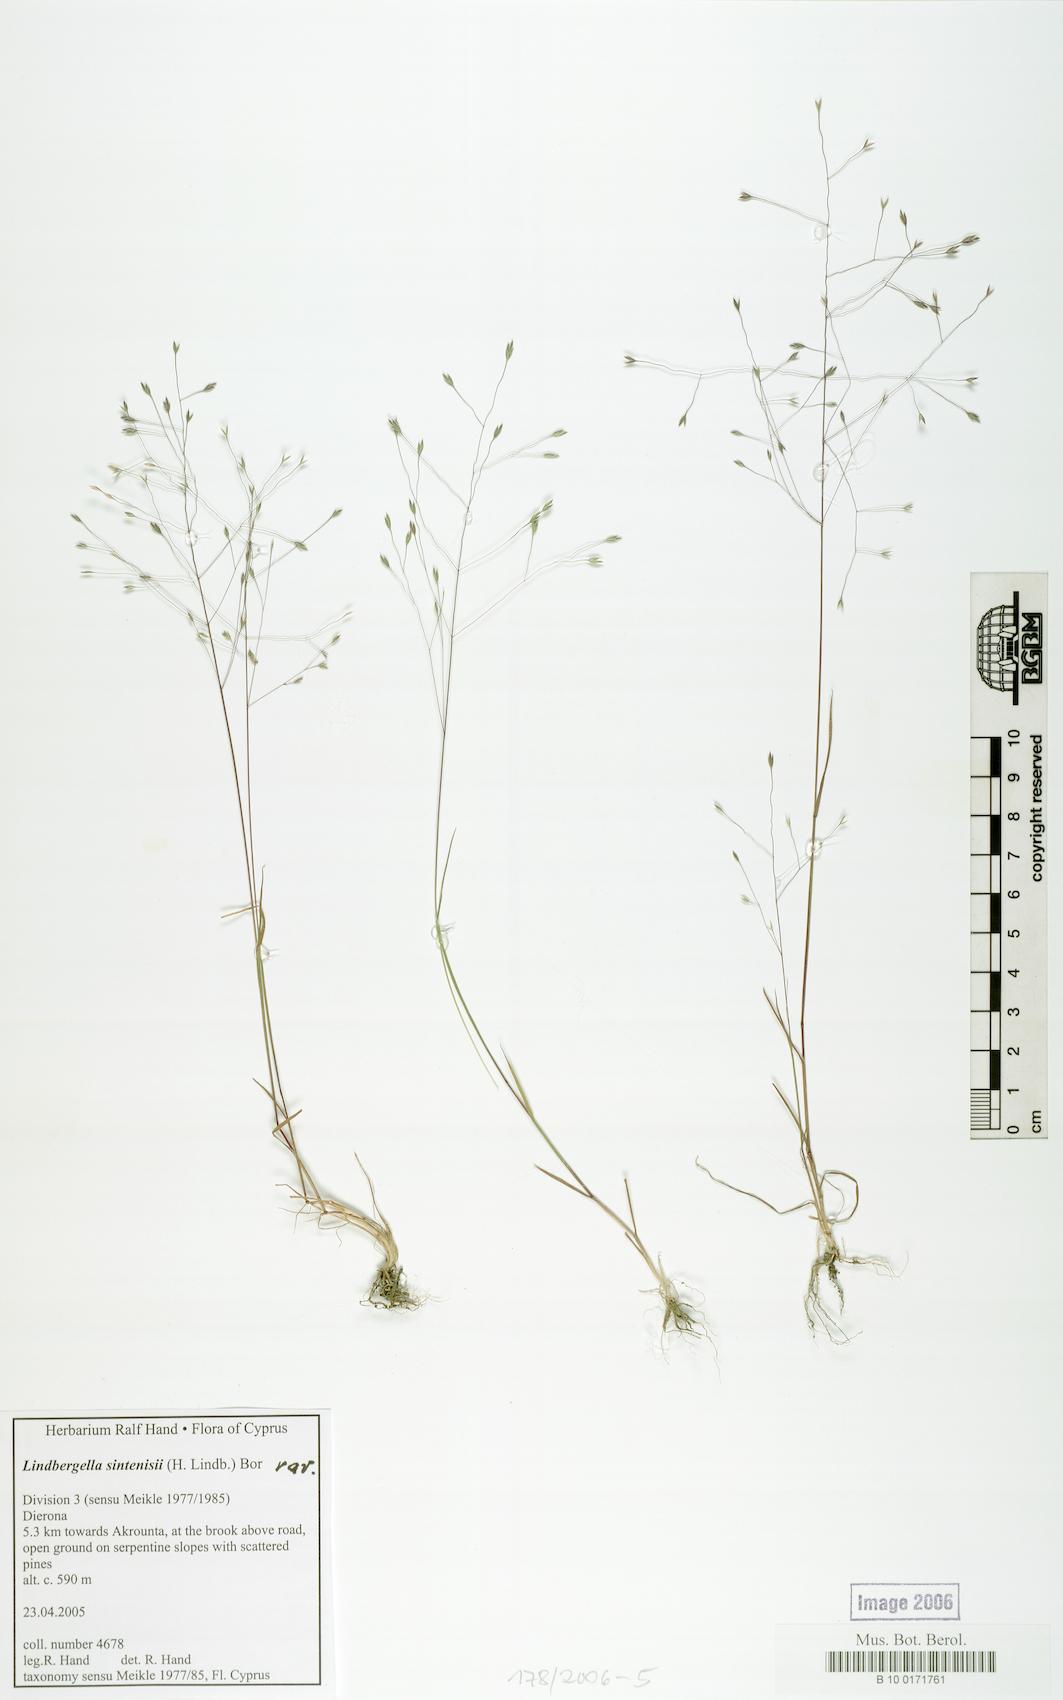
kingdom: Plantae
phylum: Tracheophyta
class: Liliopsida
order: Poales
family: Poaceae
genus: Poa
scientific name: Poa sintenisii
